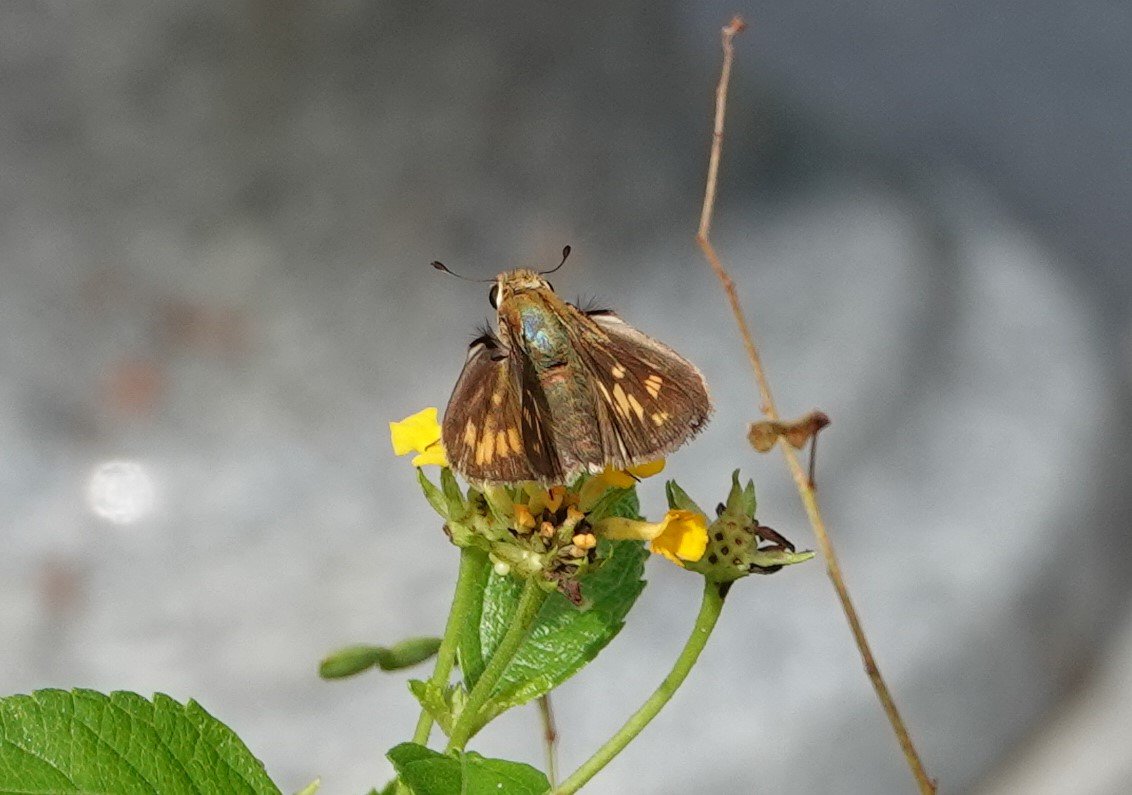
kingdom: Animalia
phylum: Arthropoda
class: Insecta
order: Lepidoptera
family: Hesperiidae
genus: Hylephila
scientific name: Hylephila phyleus
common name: Fiery Skipper
